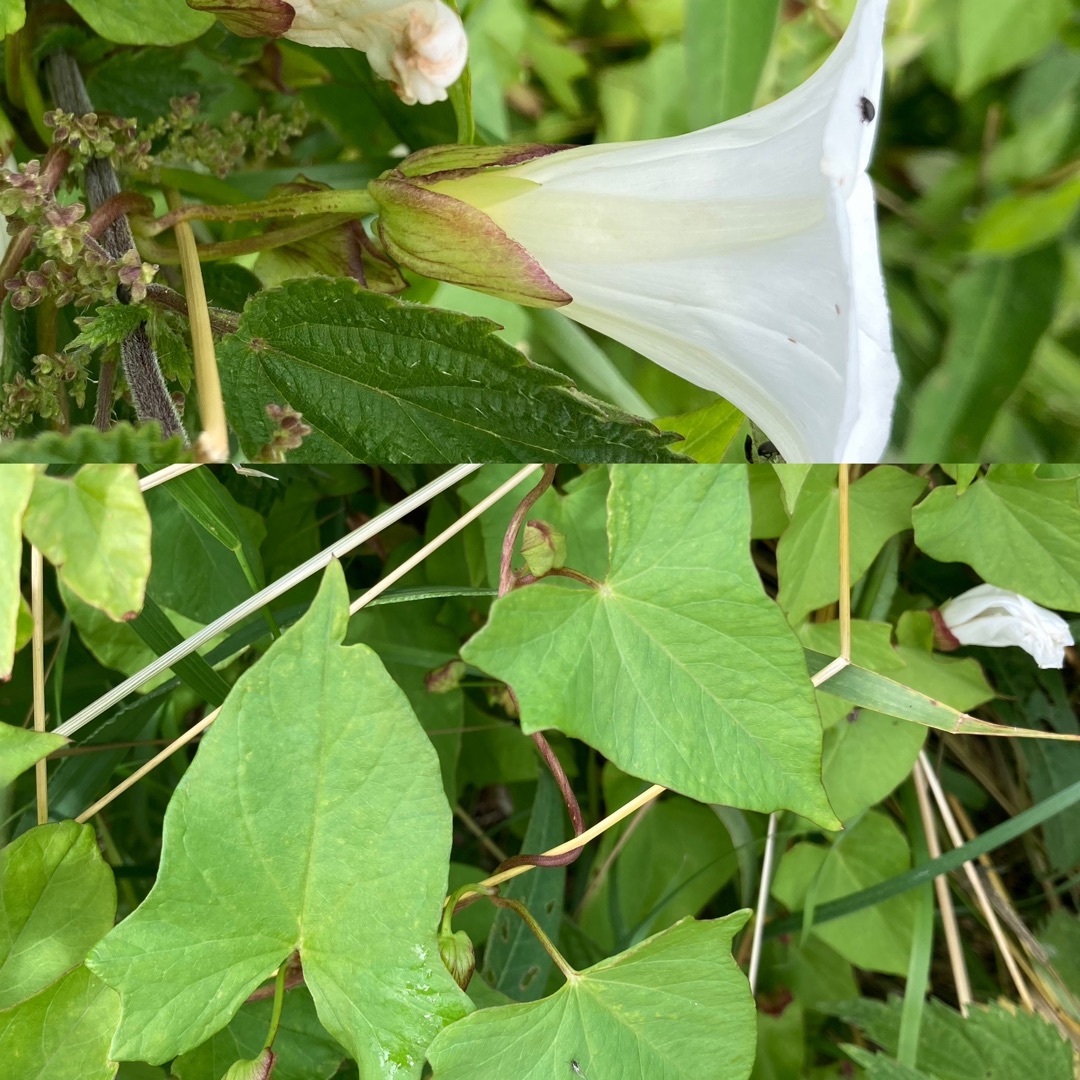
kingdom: Plantae
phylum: Tracheophyta
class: Magnoliopsida
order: Solanales
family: Convolvulaceae
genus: Calystegia
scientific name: Calystegia sepium
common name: Gærde-snerle
